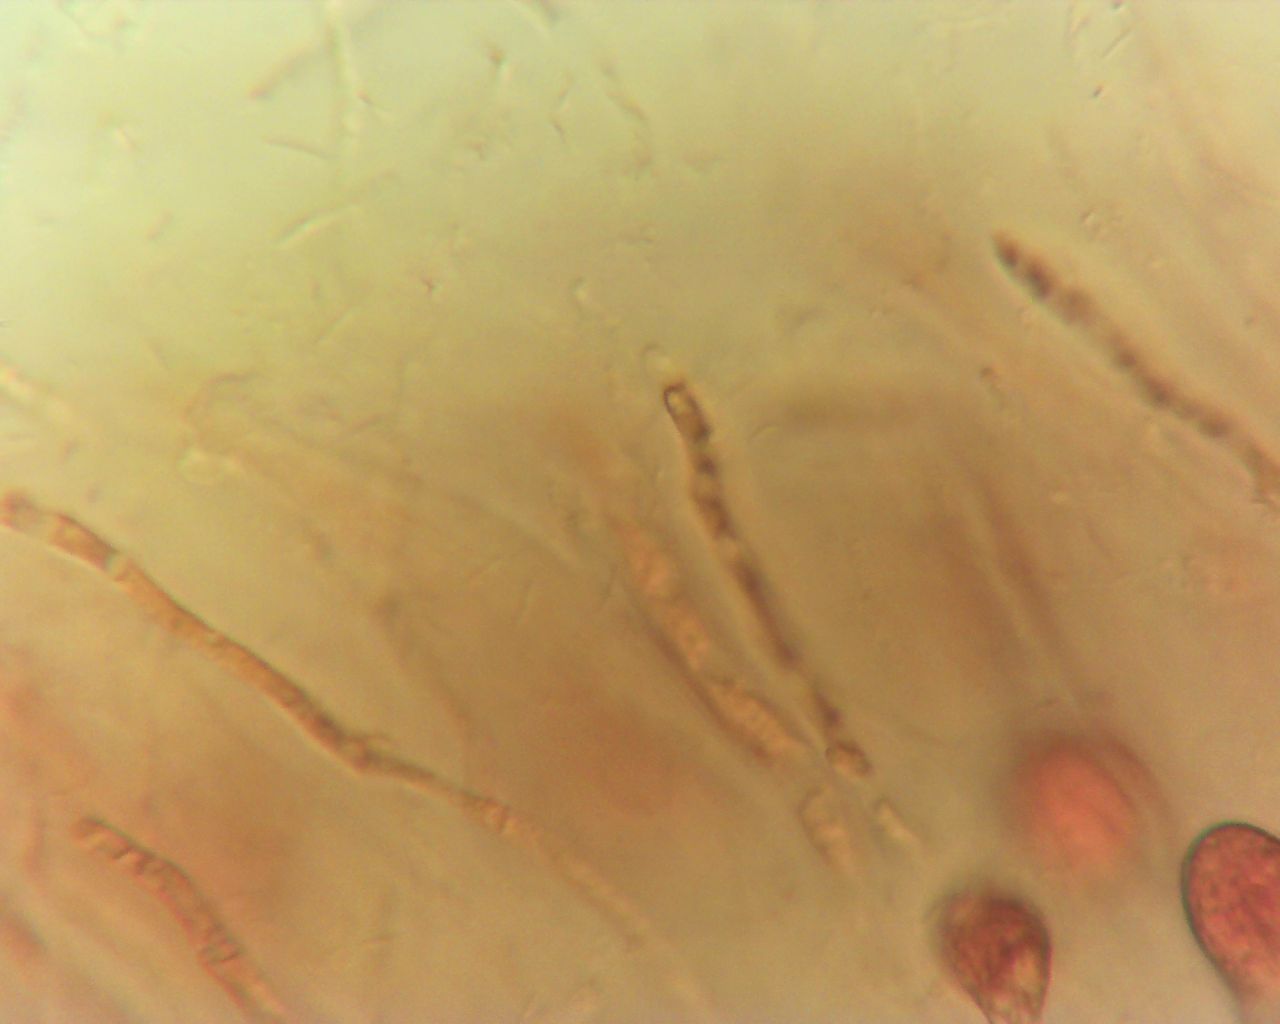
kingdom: Fungi
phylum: Basidiomycota
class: Agaricomycetes
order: Auriculariales
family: Hyaloriaceae
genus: Myxarium
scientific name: Myxarium
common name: bævretop
